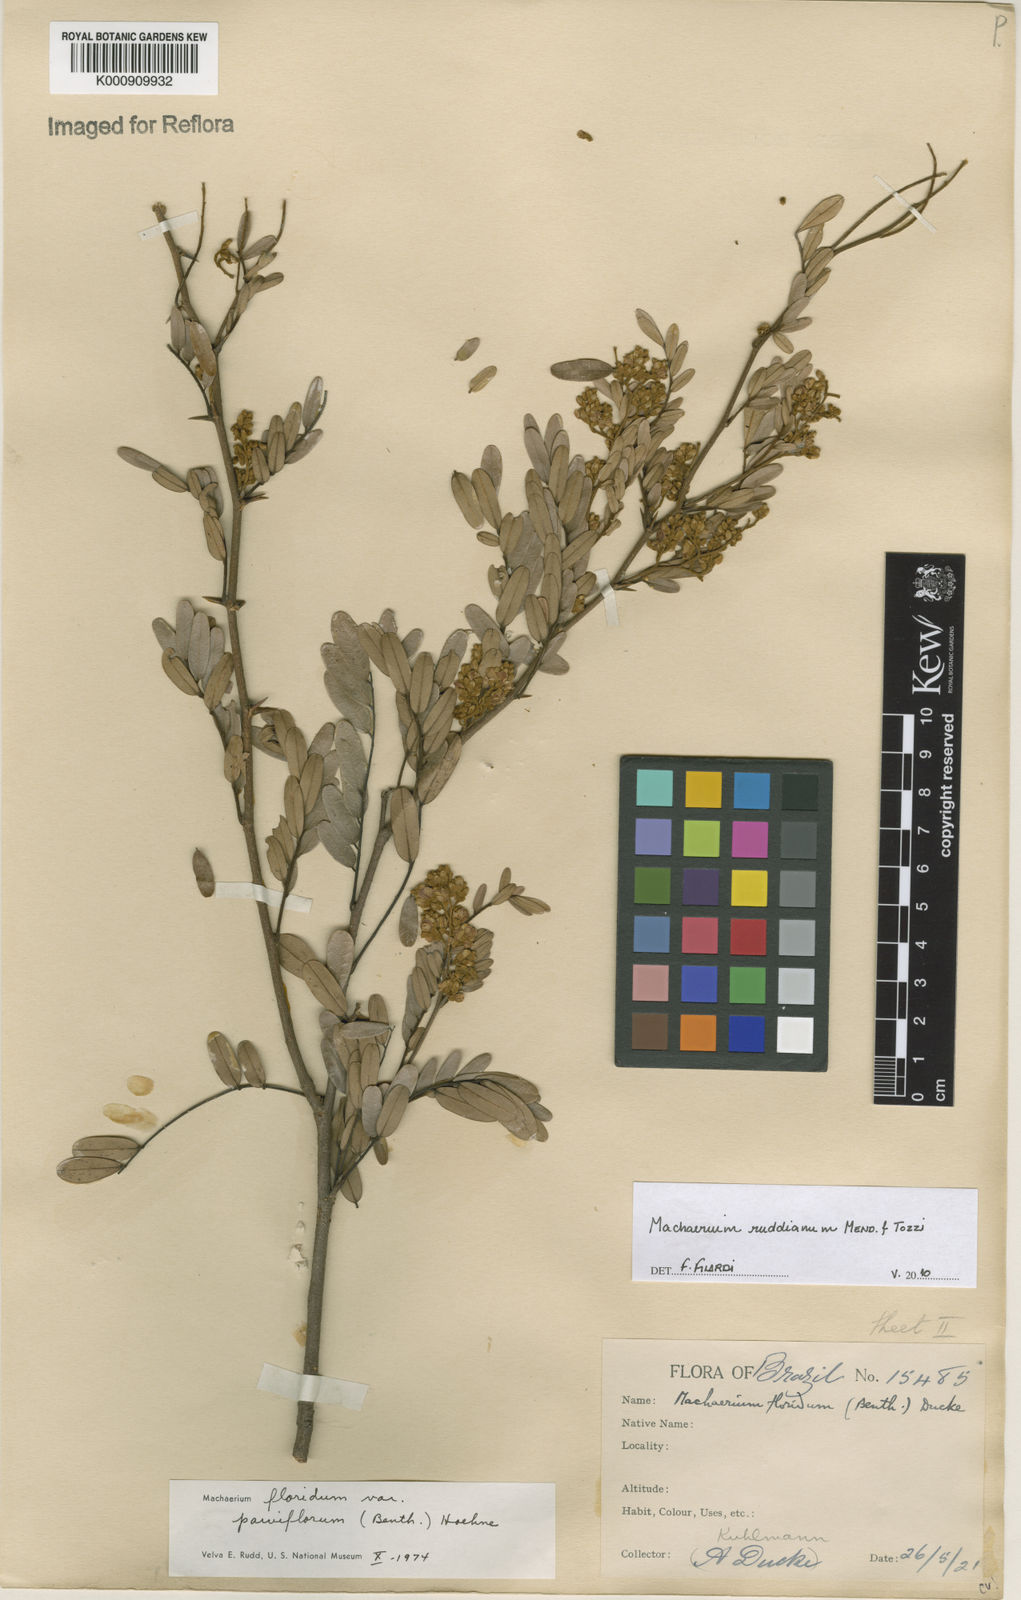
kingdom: Plantae
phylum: Tracheophyta
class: Magnoliopsida
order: Fabales
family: Fabaceae
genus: Machaerium
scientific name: Machaerium
